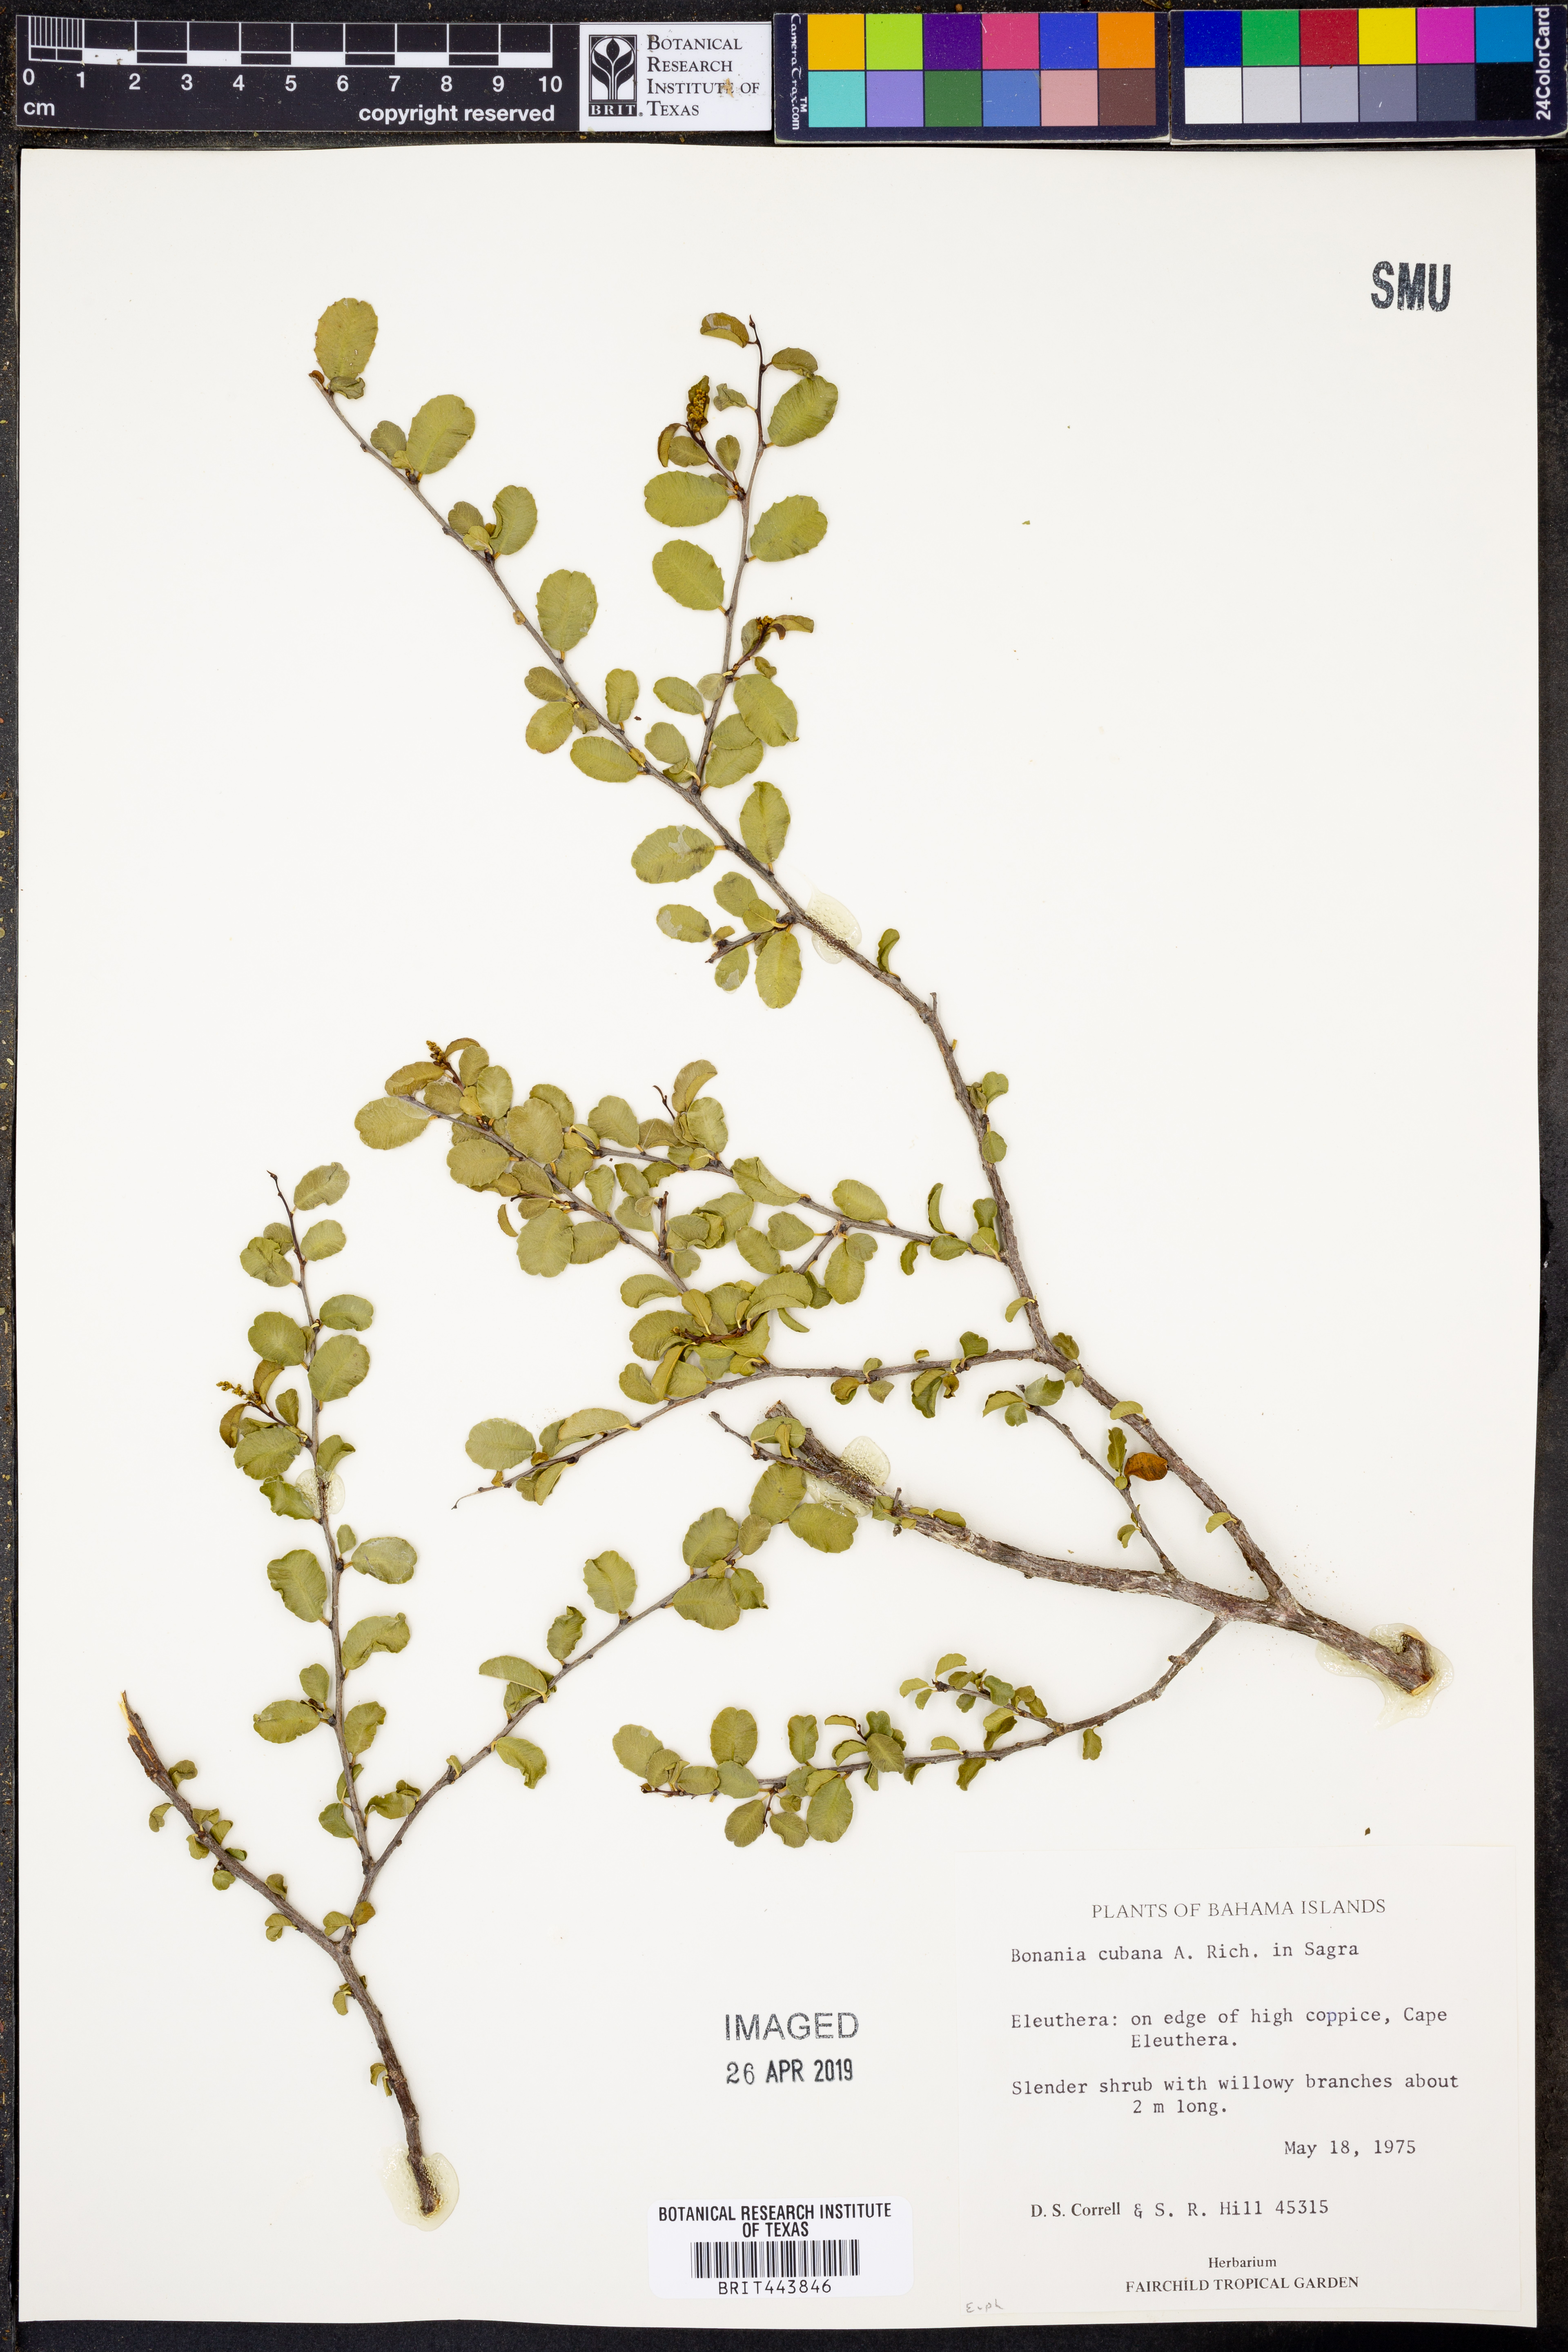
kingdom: Plantae
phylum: Tracheophyta
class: Magnoliopsida
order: Malpighiales
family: Euphorbiaceae
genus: Bonania
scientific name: Bonania cubana
